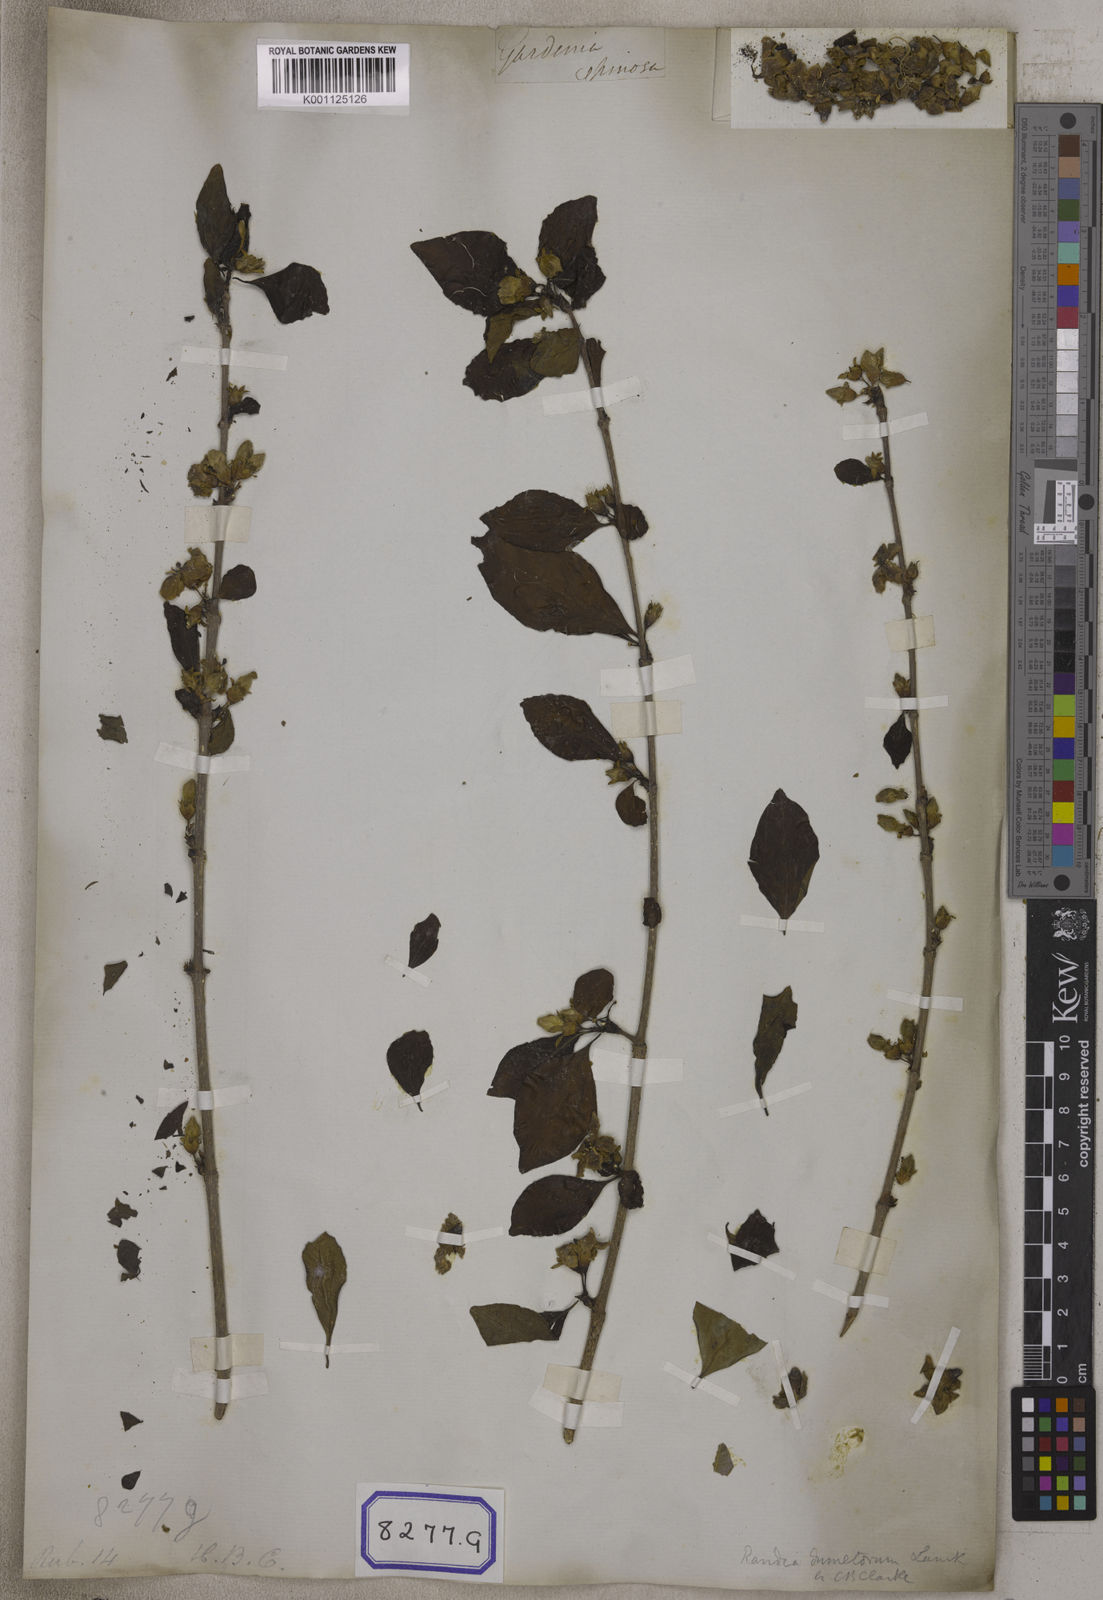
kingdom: Plantae
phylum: Tracheophyta
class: Magnoliopsida
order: Gentianales
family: Rubiaceae
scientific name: Rubiaceae
